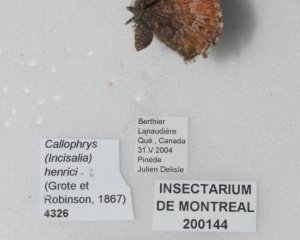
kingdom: Animalia
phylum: Arthropoda
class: Insecta
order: Lepidoptera
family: Lycaenidae
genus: Incisalia
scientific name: Incisalia niphon
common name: Eastern Pine Elfin
